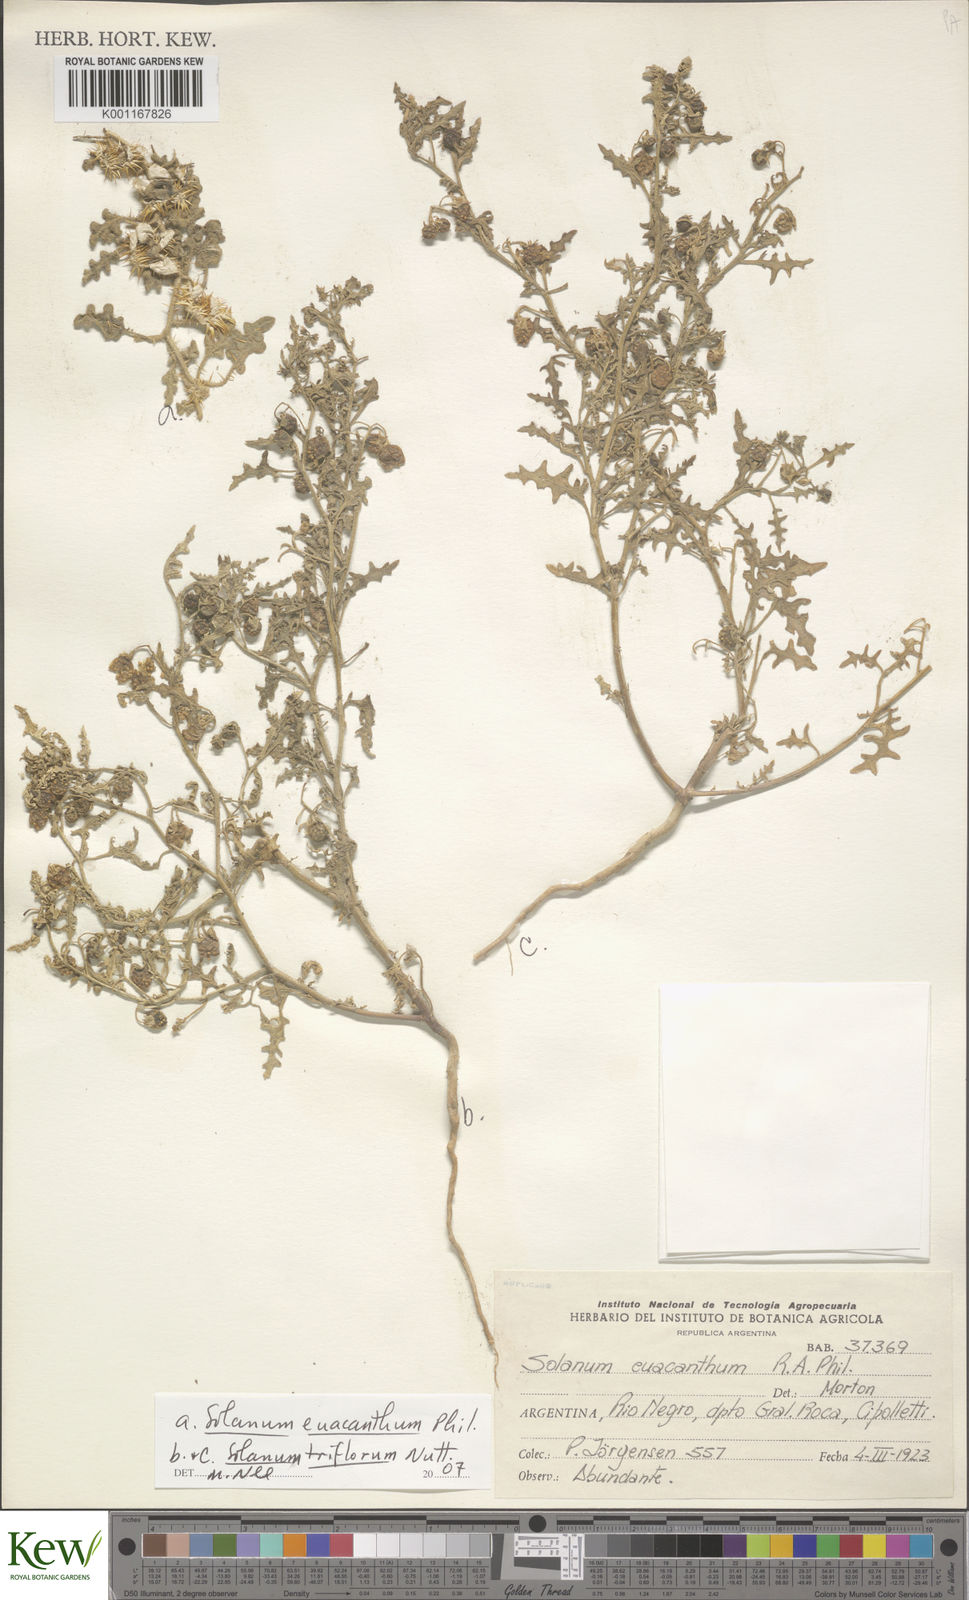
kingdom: Plantae
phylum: Tracheophyta
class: Magnoliopsida
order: Solanales
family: Solanaceae
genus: Solanum
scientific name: Solanum euacanthum
